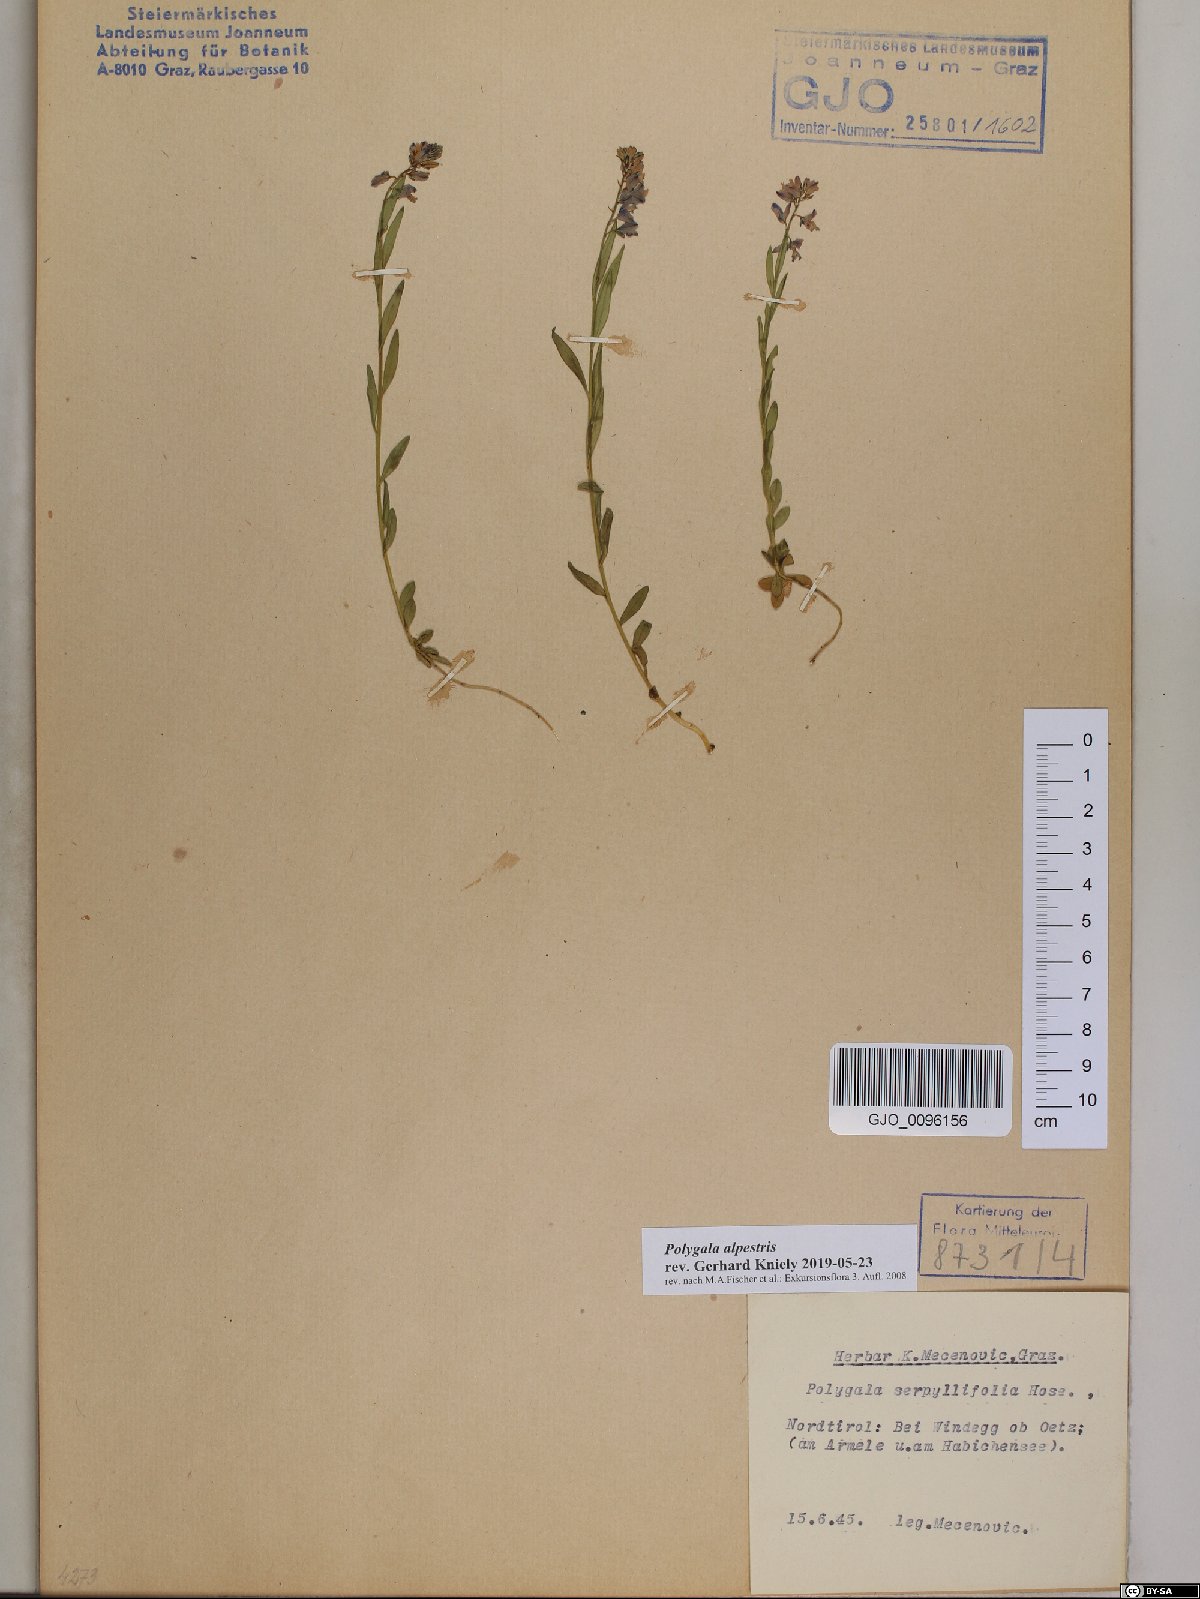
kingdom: Plantae
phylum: Tracheophyta
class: Magnoliopsida
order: Fabales
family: Polygalaceae
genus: Polygala
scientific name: Polygala alpestris
